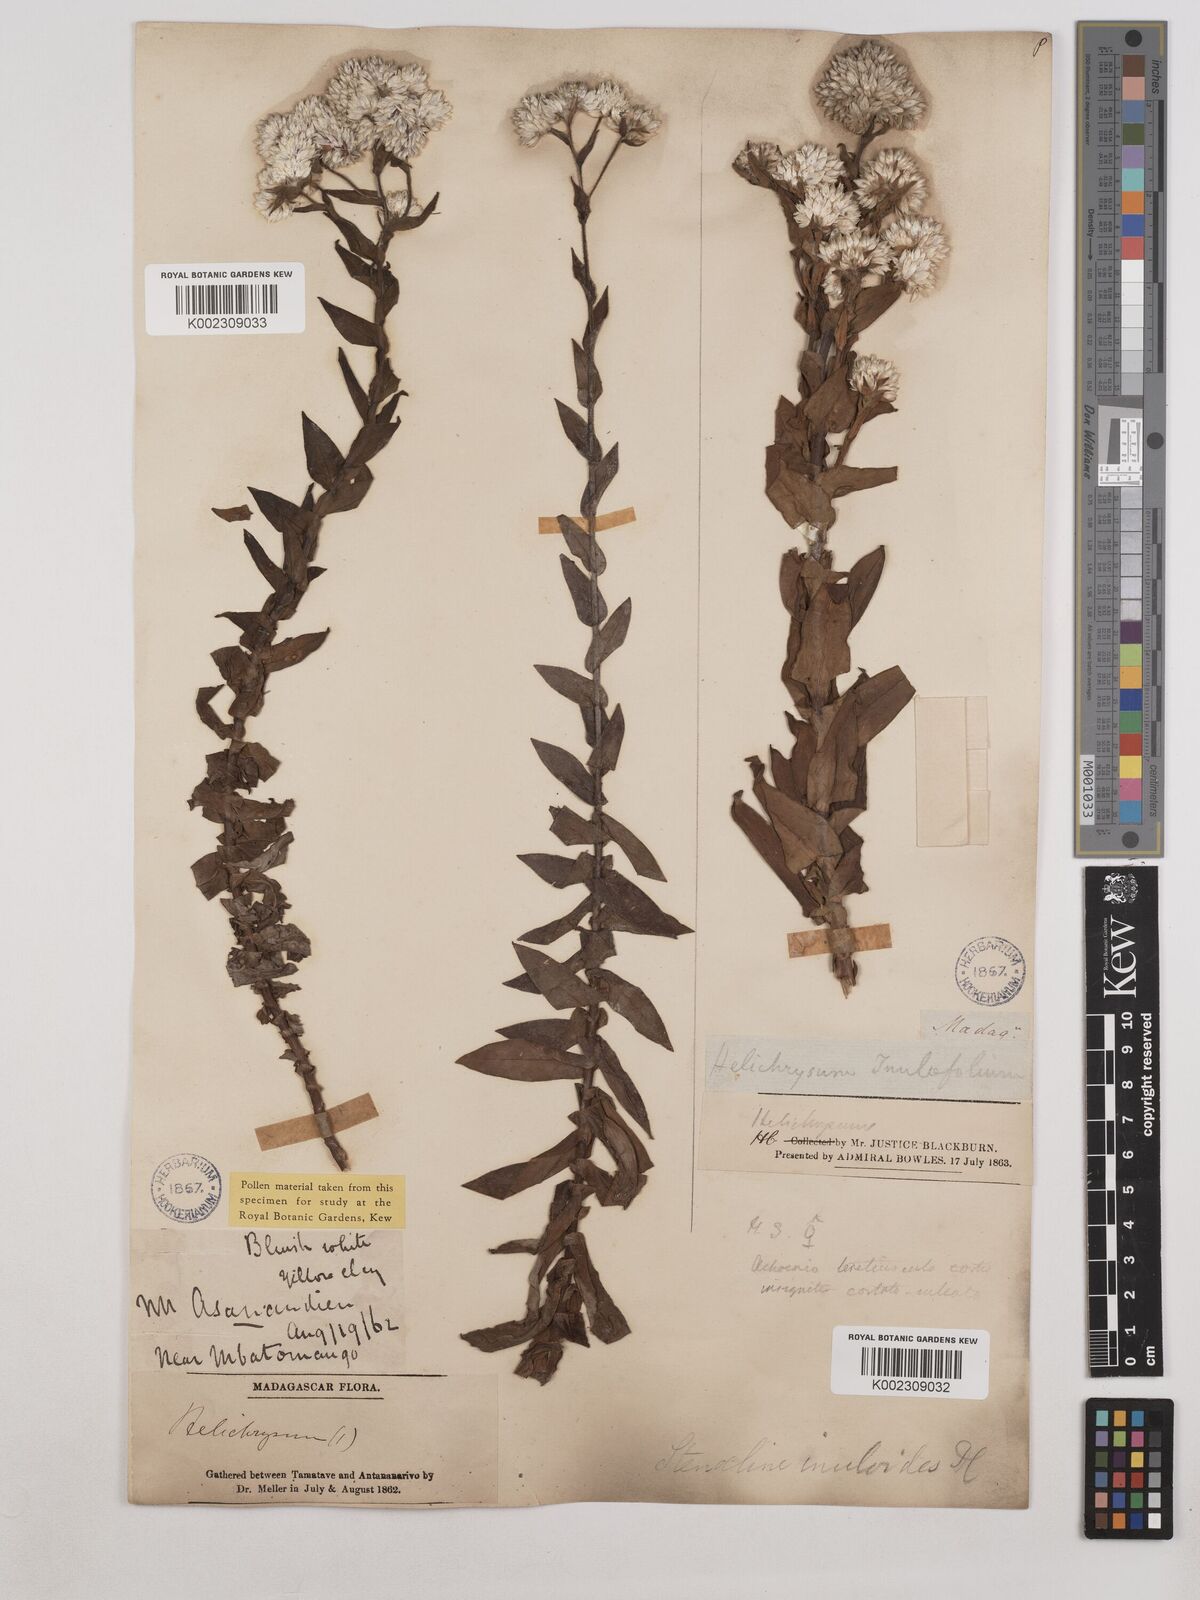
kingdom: Plantae
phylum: Tracheophyta
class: Magnoliopsida
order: Asterales
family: Asteraceae
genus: Stenocline
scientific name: Stenocline inuloides
